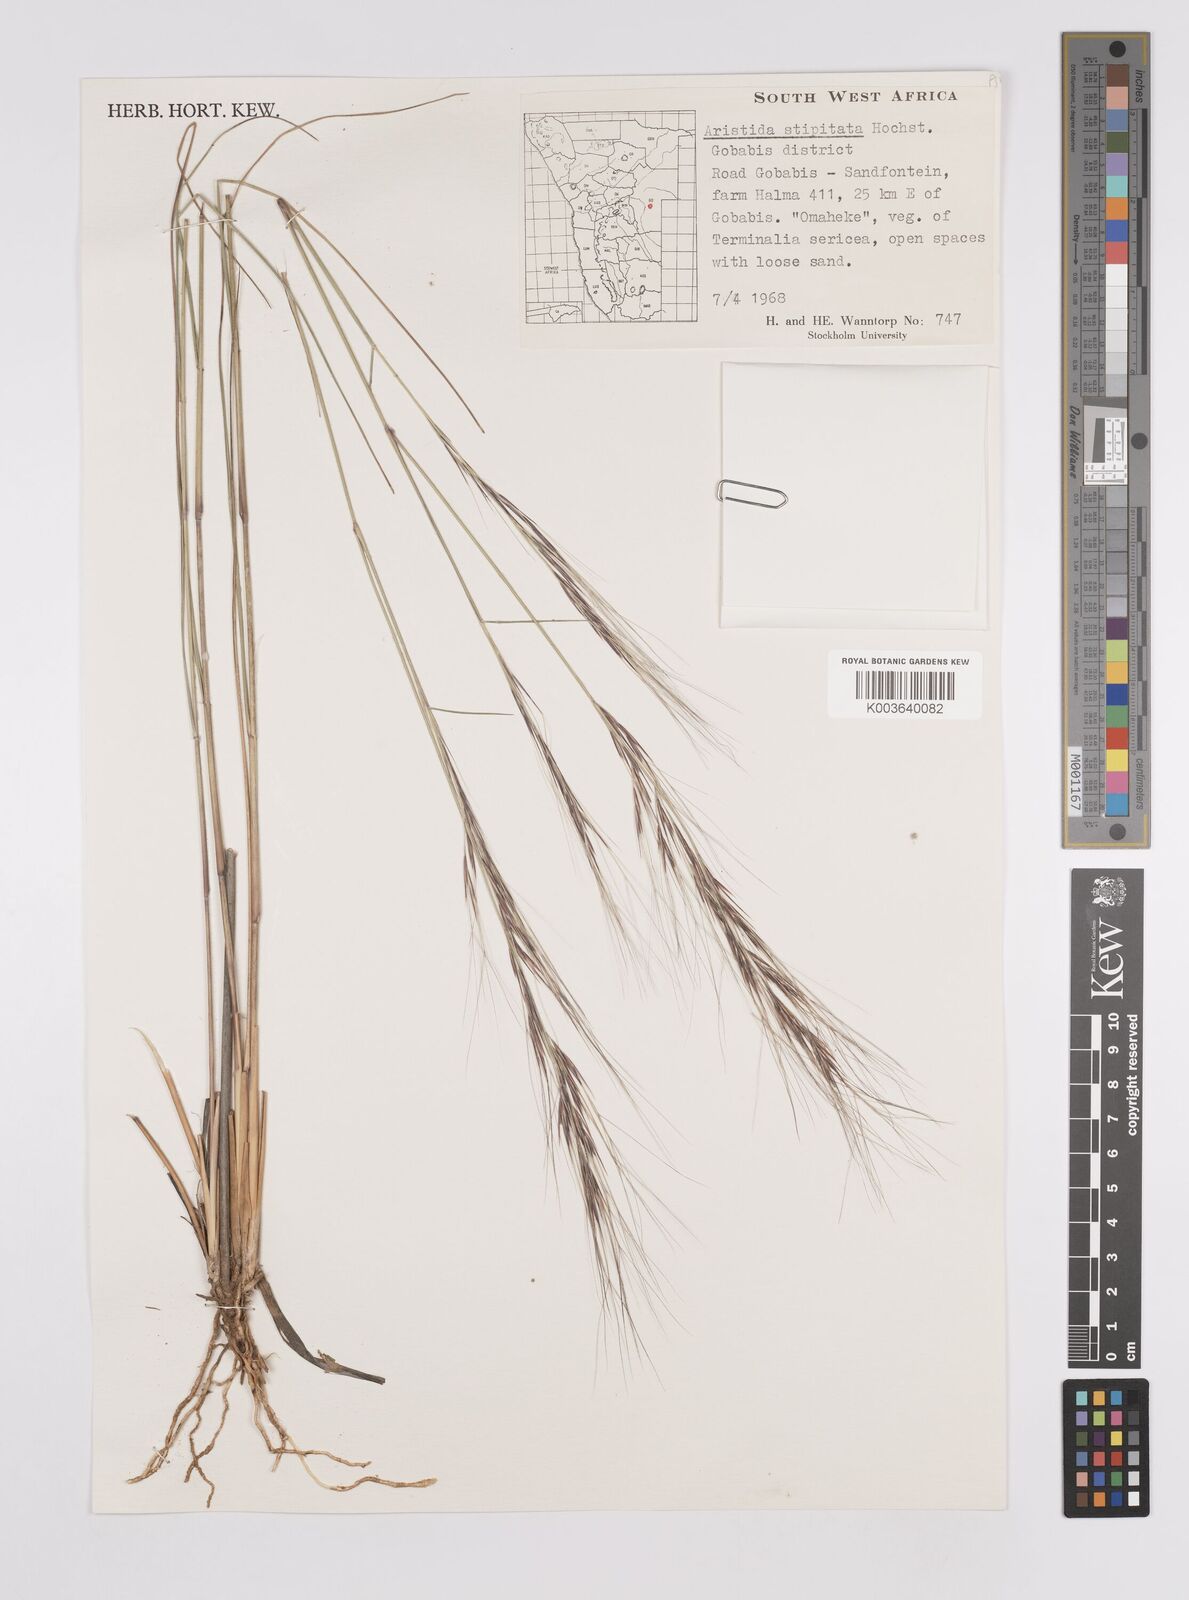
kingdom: Plantae
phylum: Tracheophyta
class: Liliopsida
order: Poales
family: Poaceae
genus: Aristida
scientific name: Aristida stipitata
